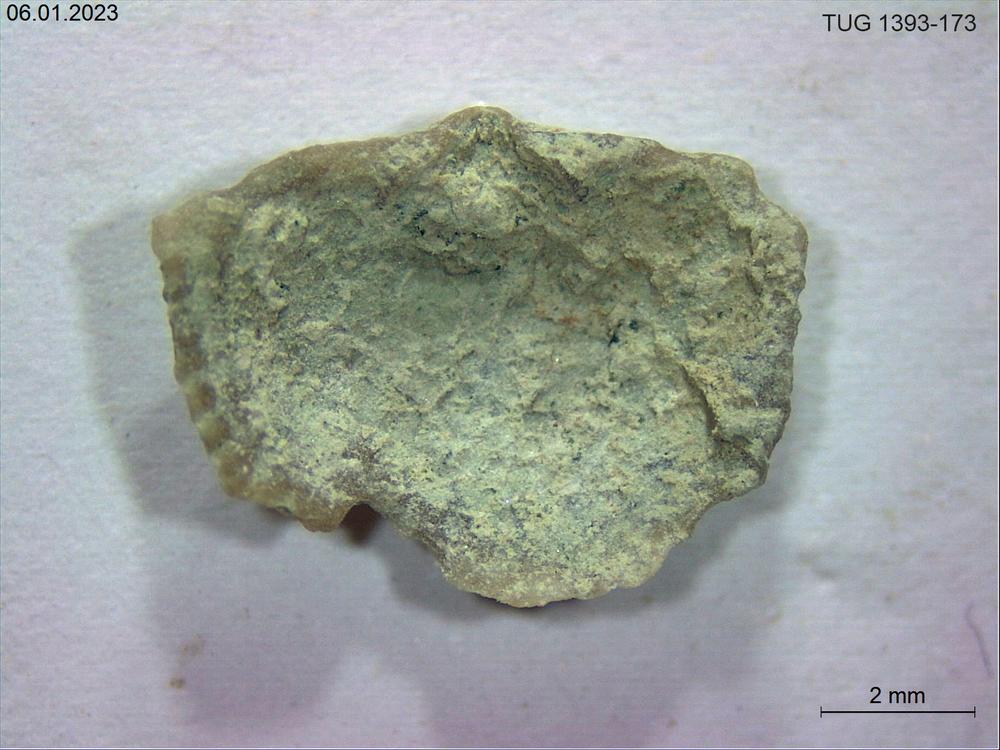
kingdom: Animalia
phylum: Brachiopoda
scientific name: Brachiopoda
